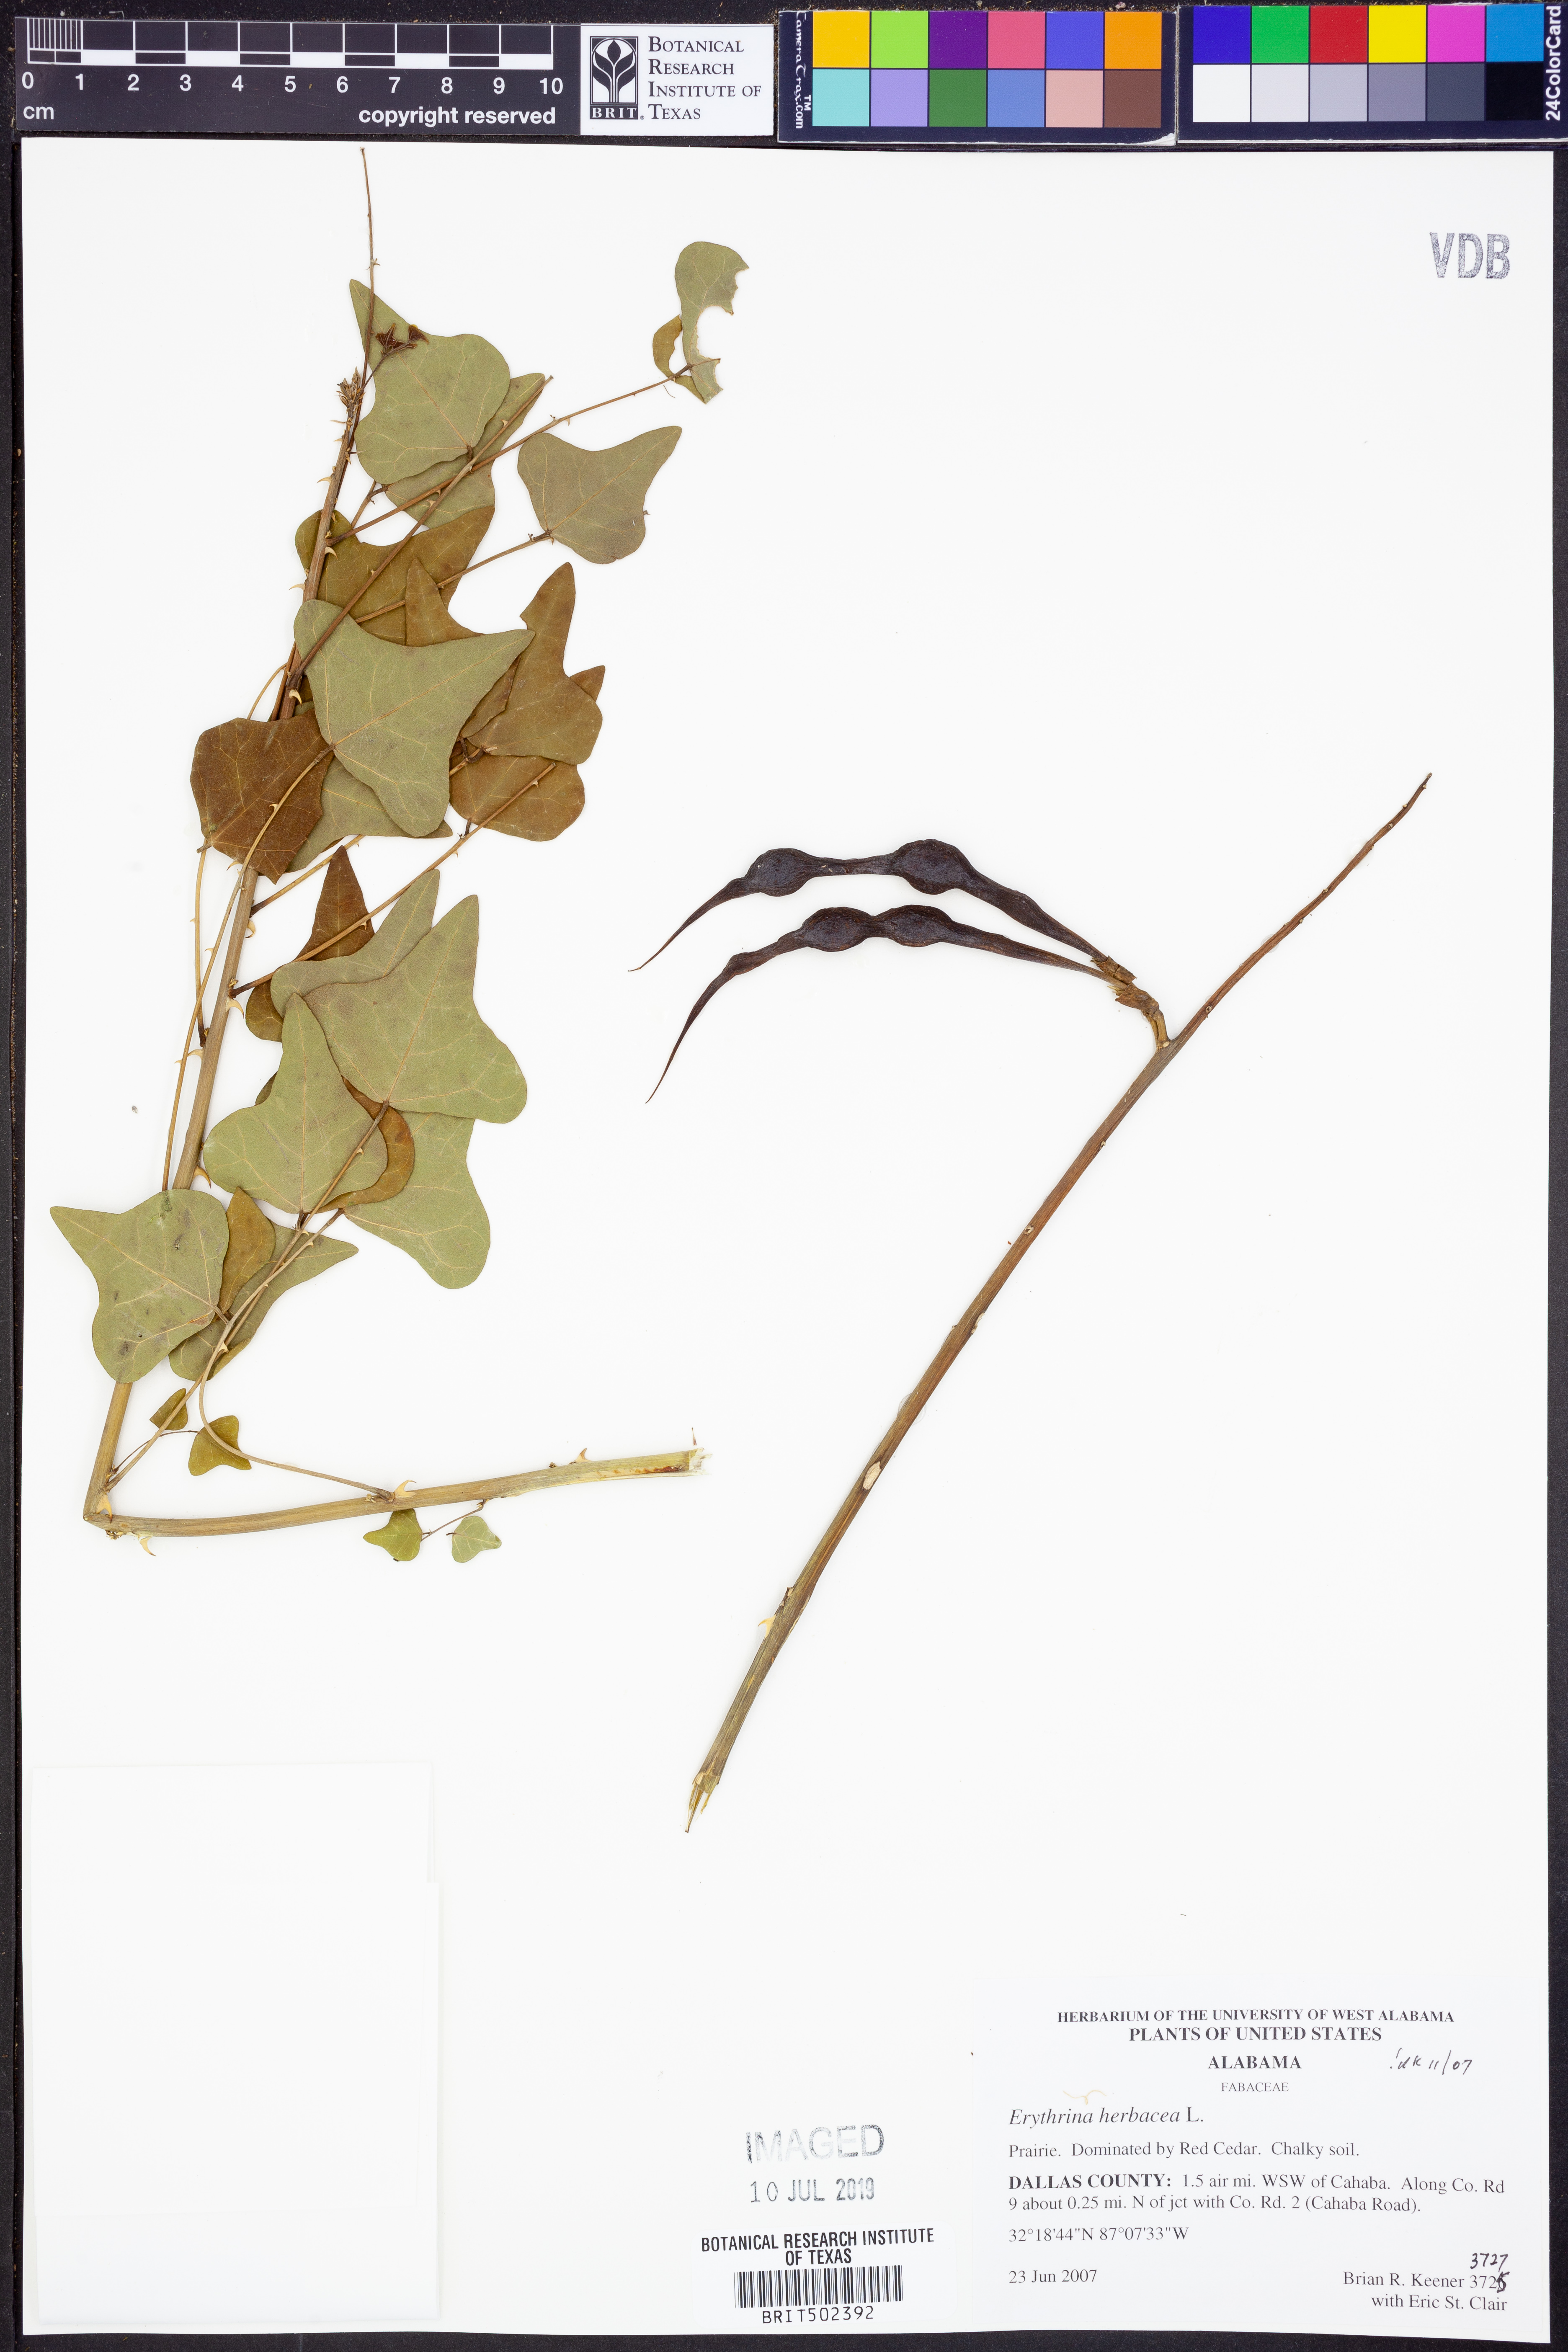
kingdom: Plantae
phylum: Tracheophyta
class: Magnoliopsida
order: Fabales
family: Fabaceae
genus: Erythrina
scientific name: Erythrina herbacea
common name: Coral-bean
